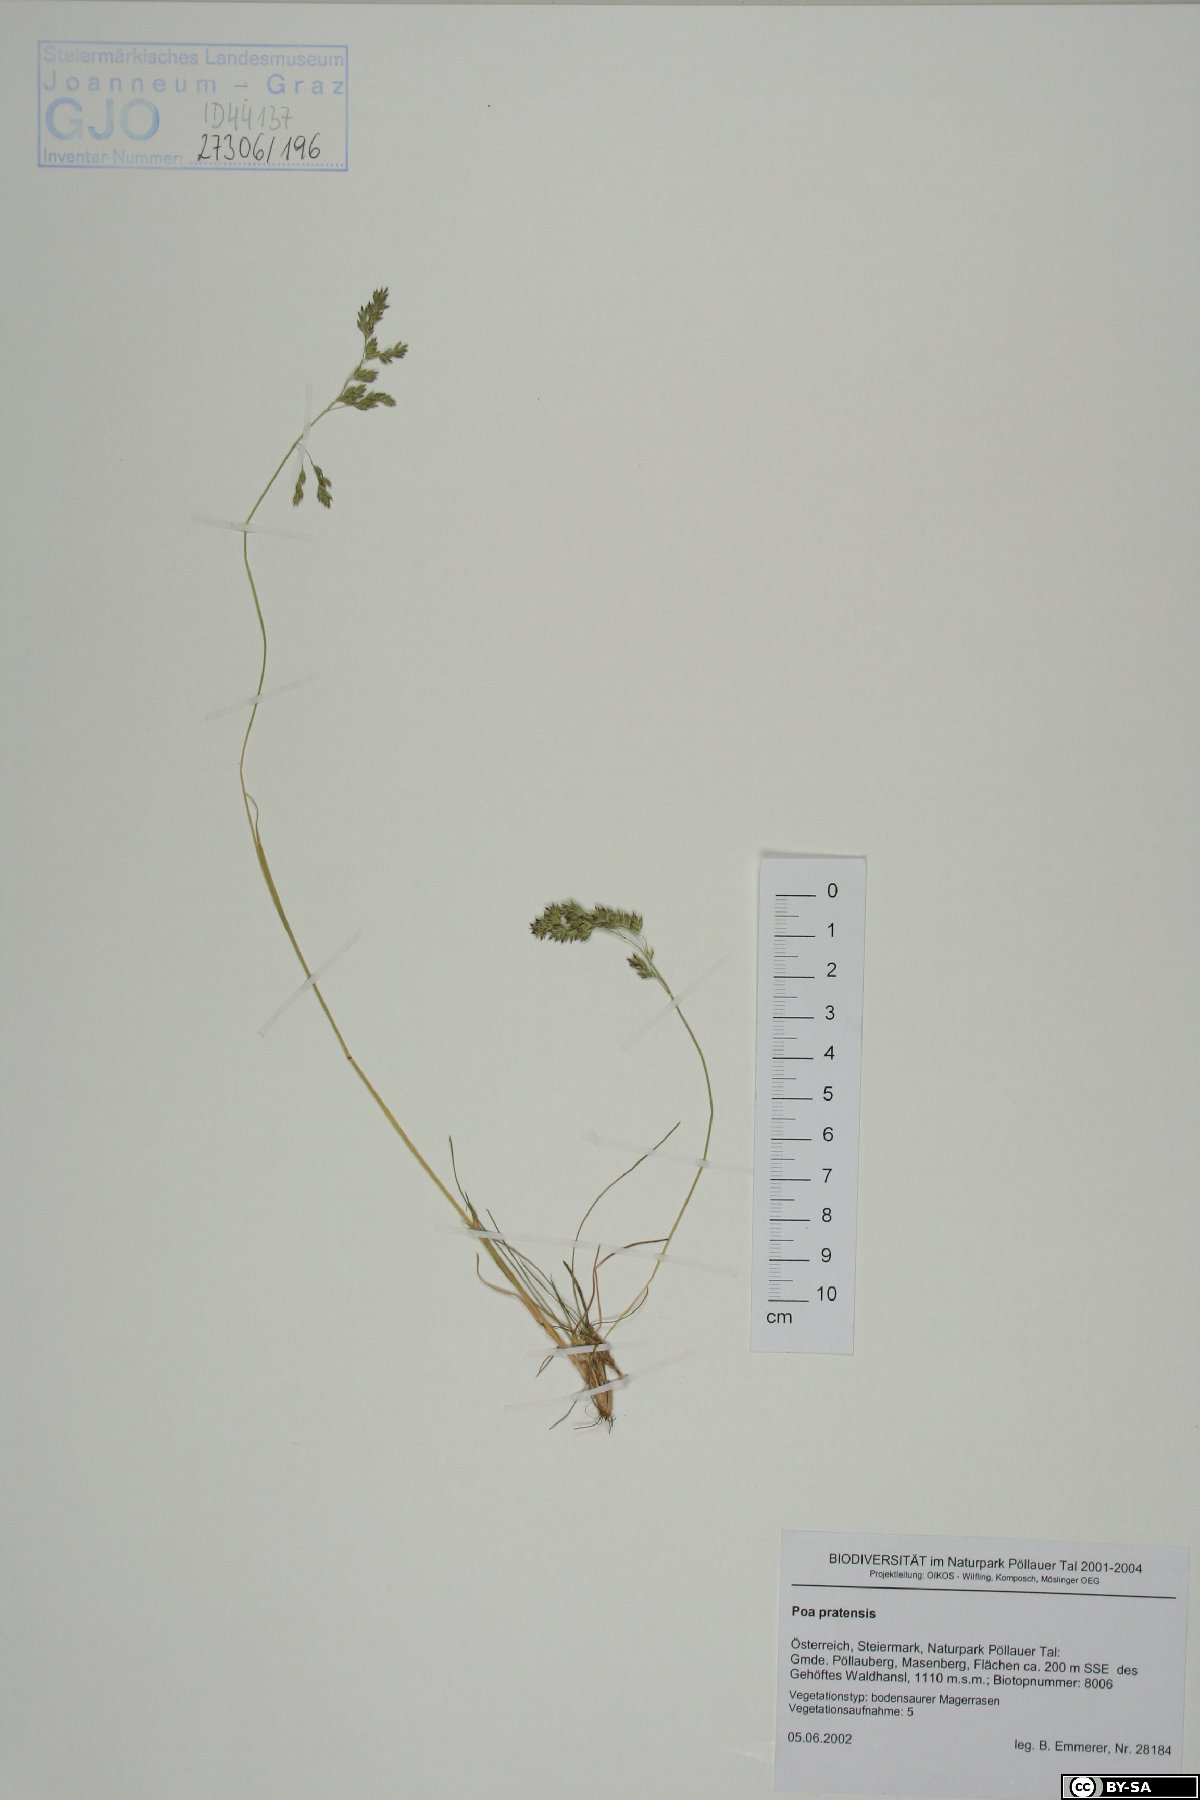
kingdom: Plantae
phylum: Tracheophyta
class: Liliopsida
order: Poales
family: Poaceae
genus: Poa
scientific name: Poa pratensis
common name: Kentucky bluegrass
